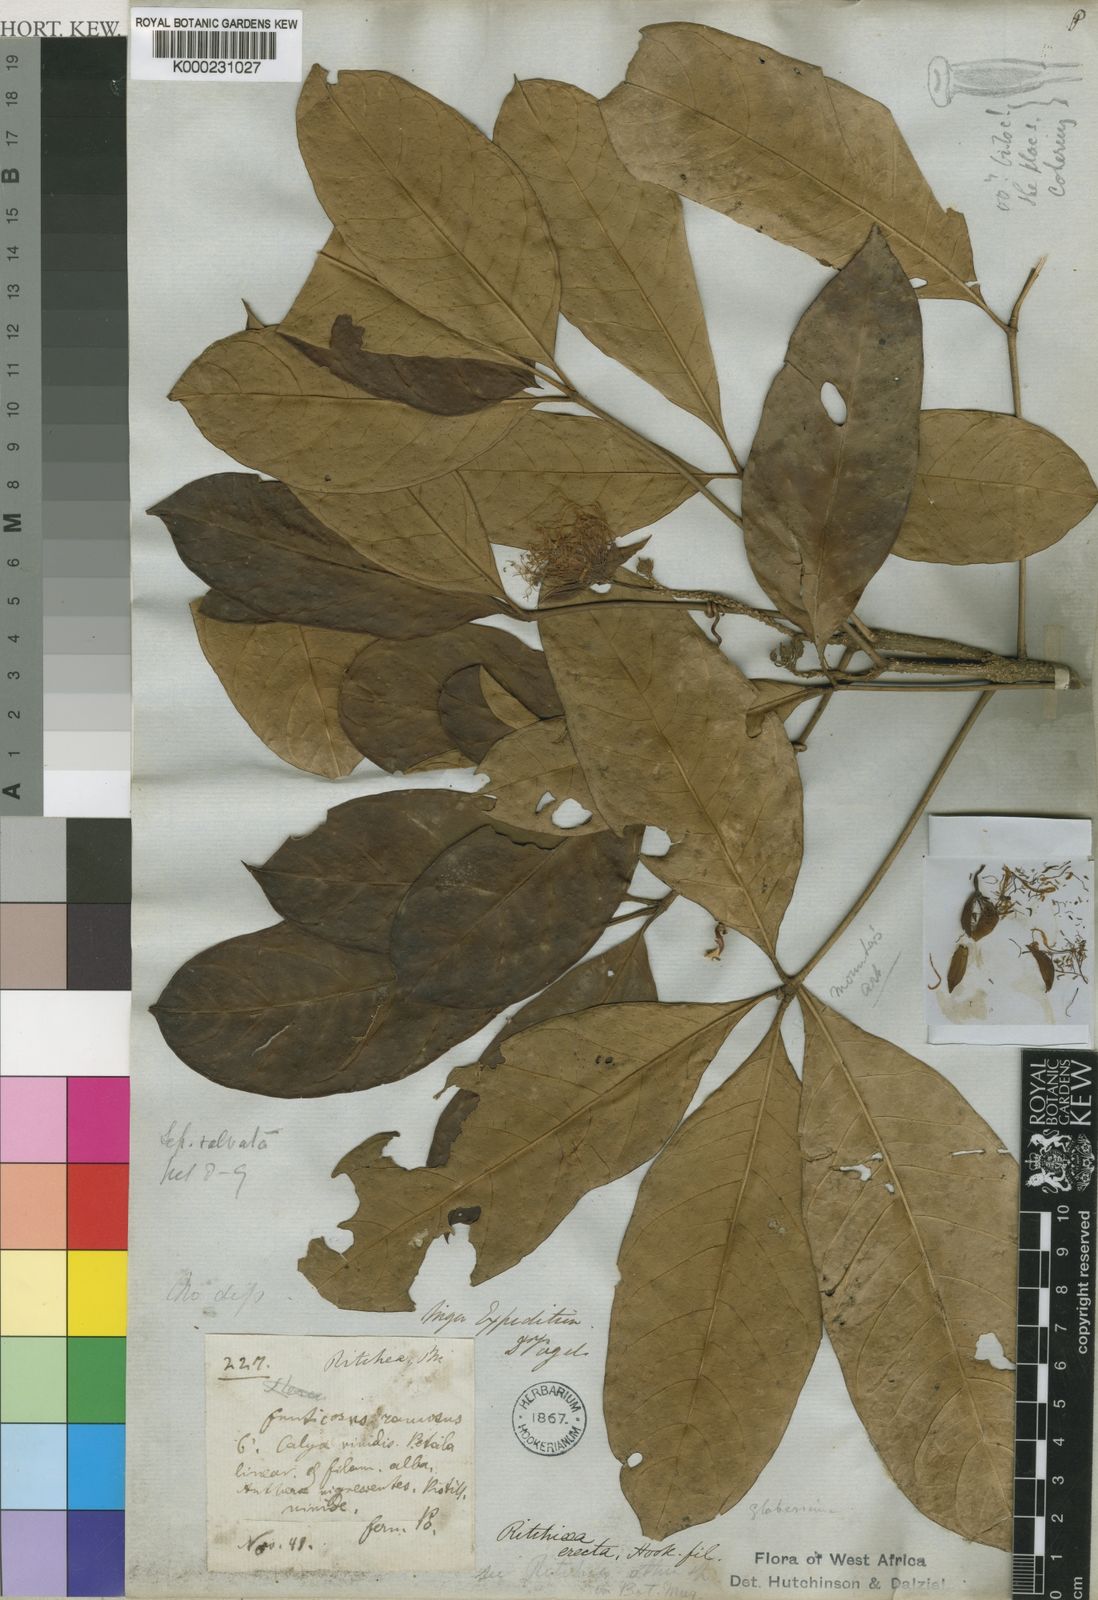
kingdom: Plantae
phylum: Tracheophyta
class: Magnoliopsida
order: Brassicales
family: Capparaceae
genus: Ritchiea
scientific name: Ritchiea erecta
